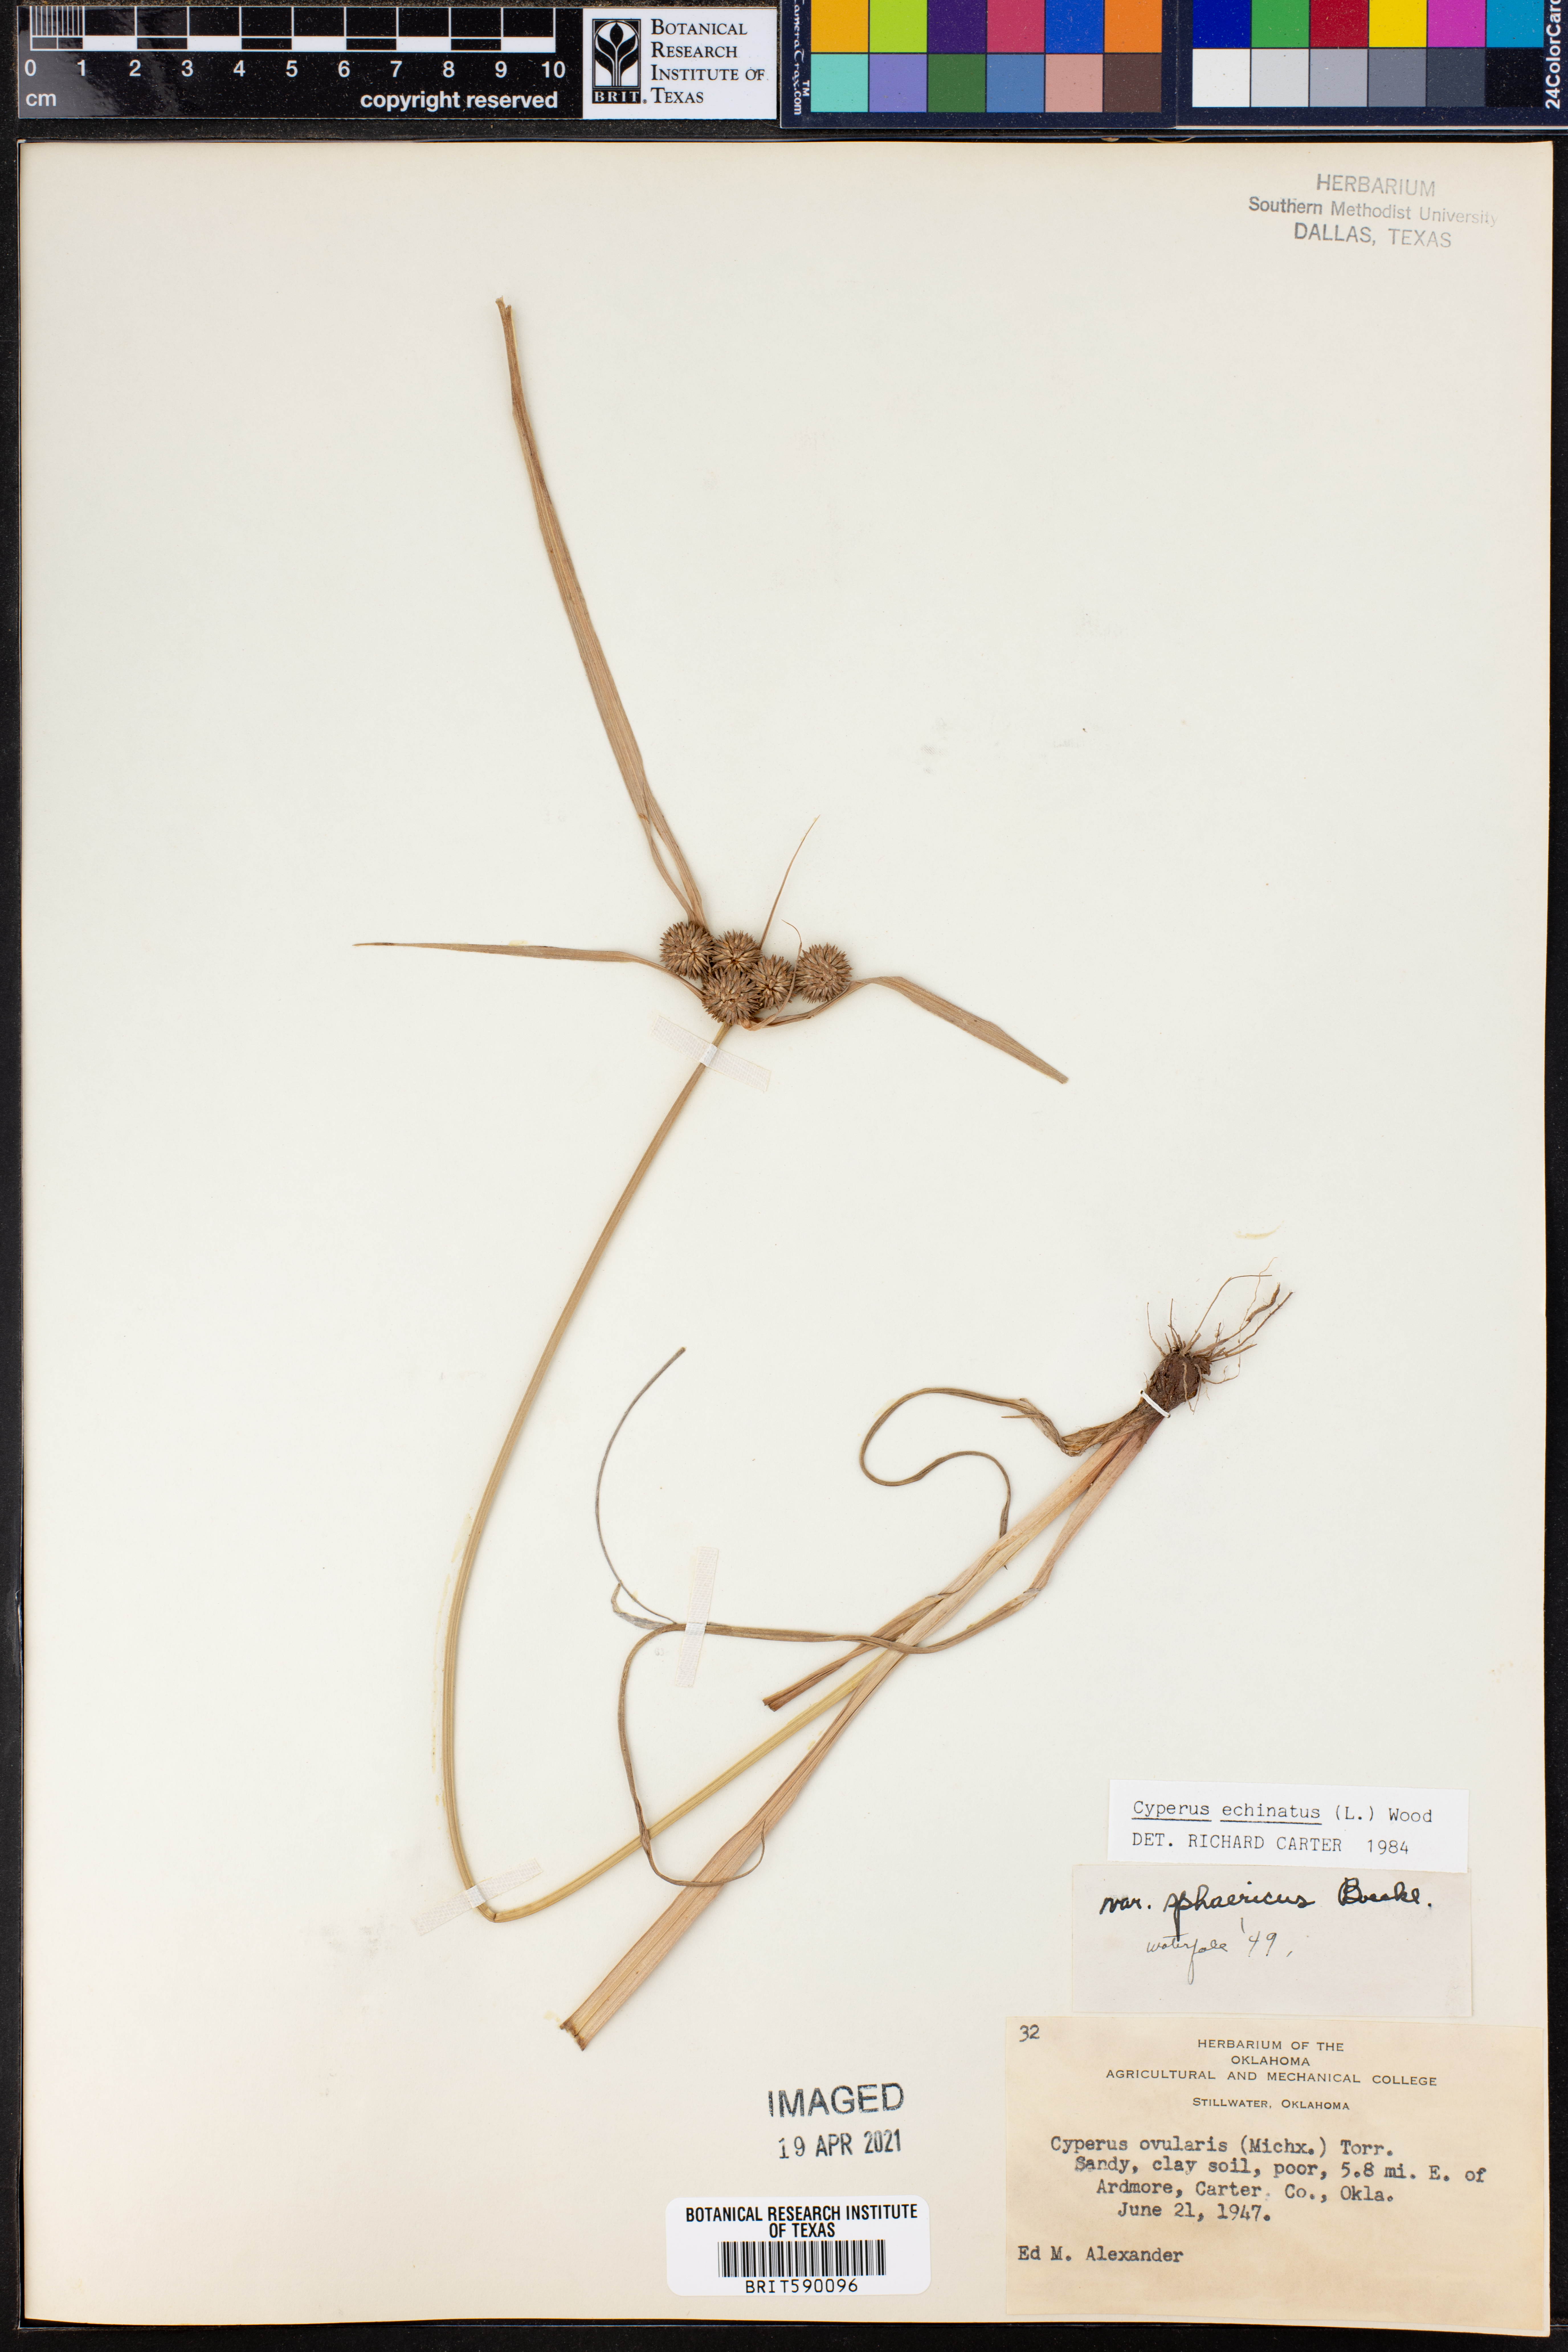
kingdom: Plantae
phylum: Tracheophyta
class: Liliopsida
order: Poales
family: Cyperaceae
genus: Cyperus
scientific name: Cyperus echinatus
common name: Teasel sedge
